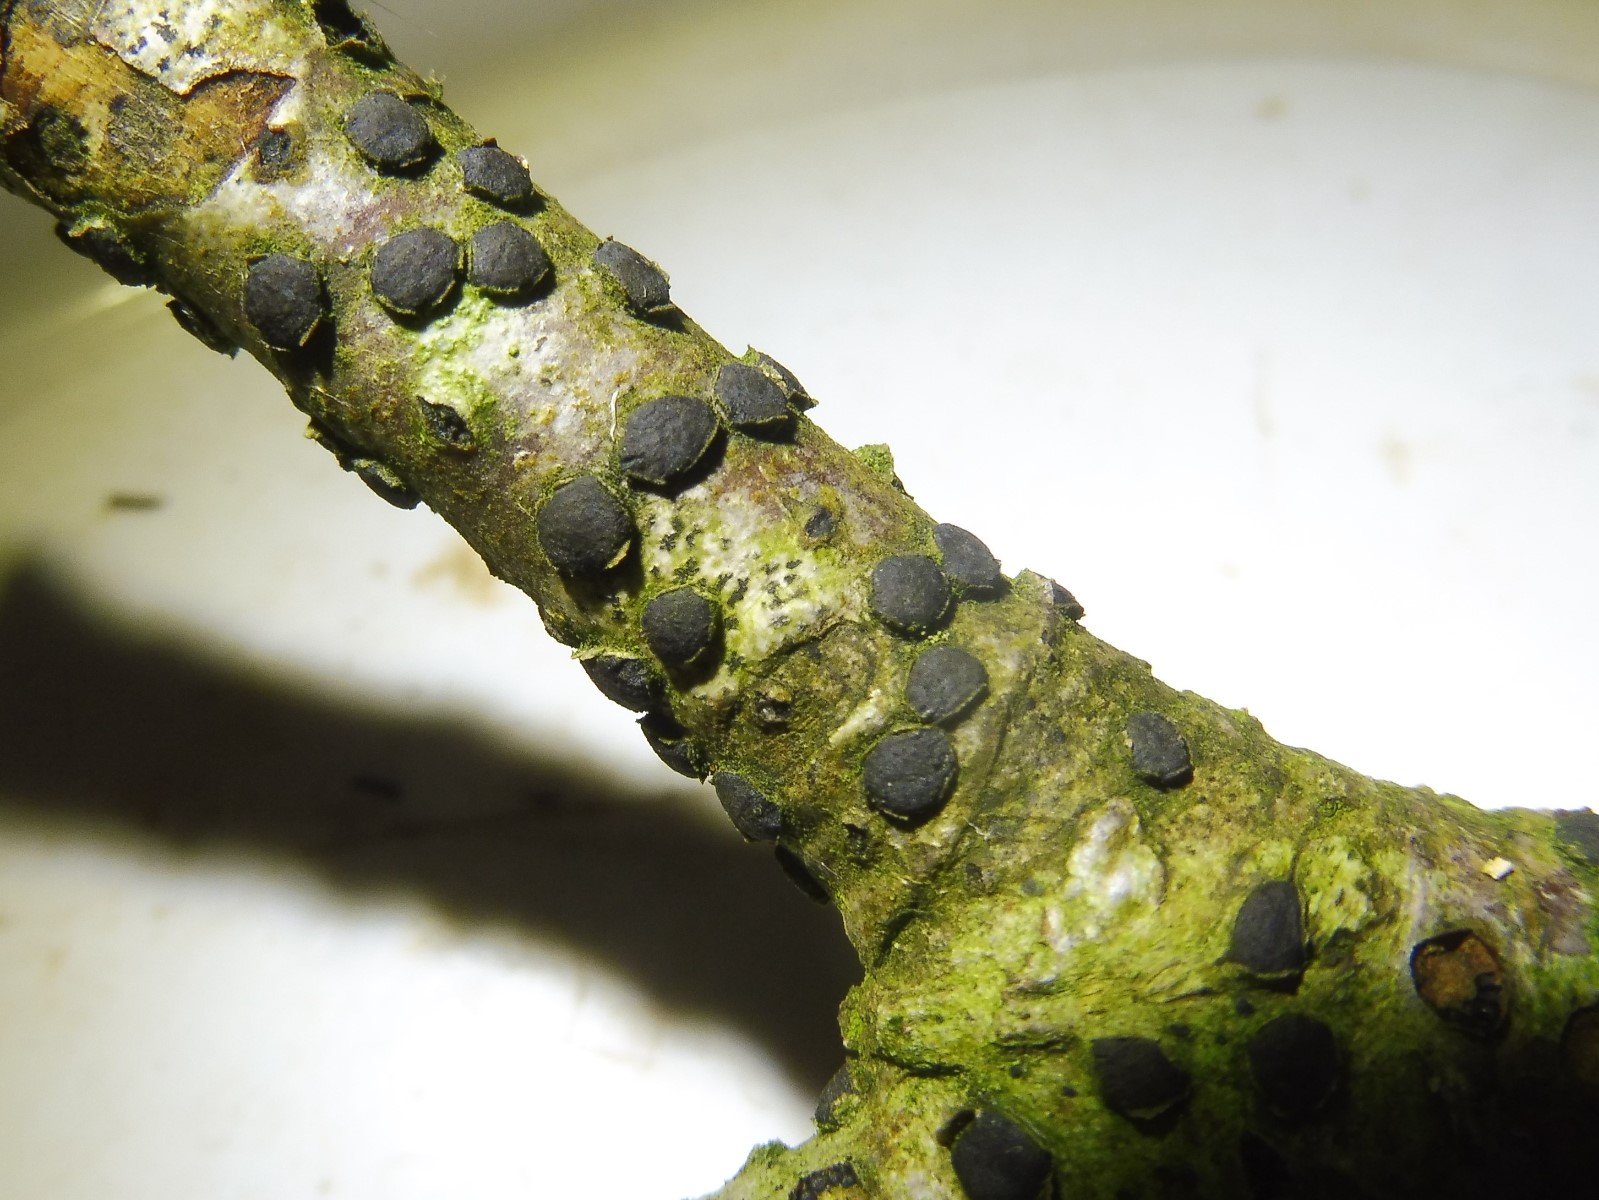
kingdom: Fungi
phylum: Ascomycota
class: Sordariomycetes
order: Xylariales
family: Diatrypaceae
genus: Diatrype
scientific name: Diatrype disciformis
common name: kant-kulskorpe
